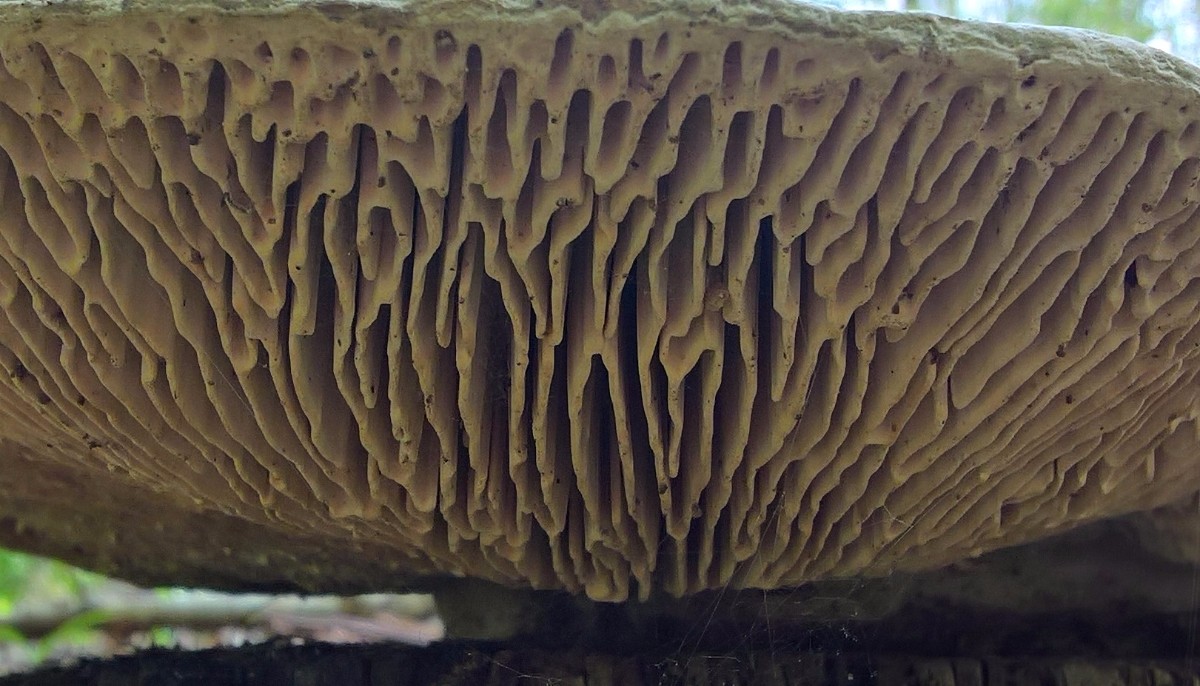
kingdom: Fungi
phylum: Basidiomycota
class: Agaricomycetes
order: Polyporales
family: Fomitopsidaceae
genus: Daedalea
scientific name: Daedalea quercina
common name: ege-labyrintsvamp
